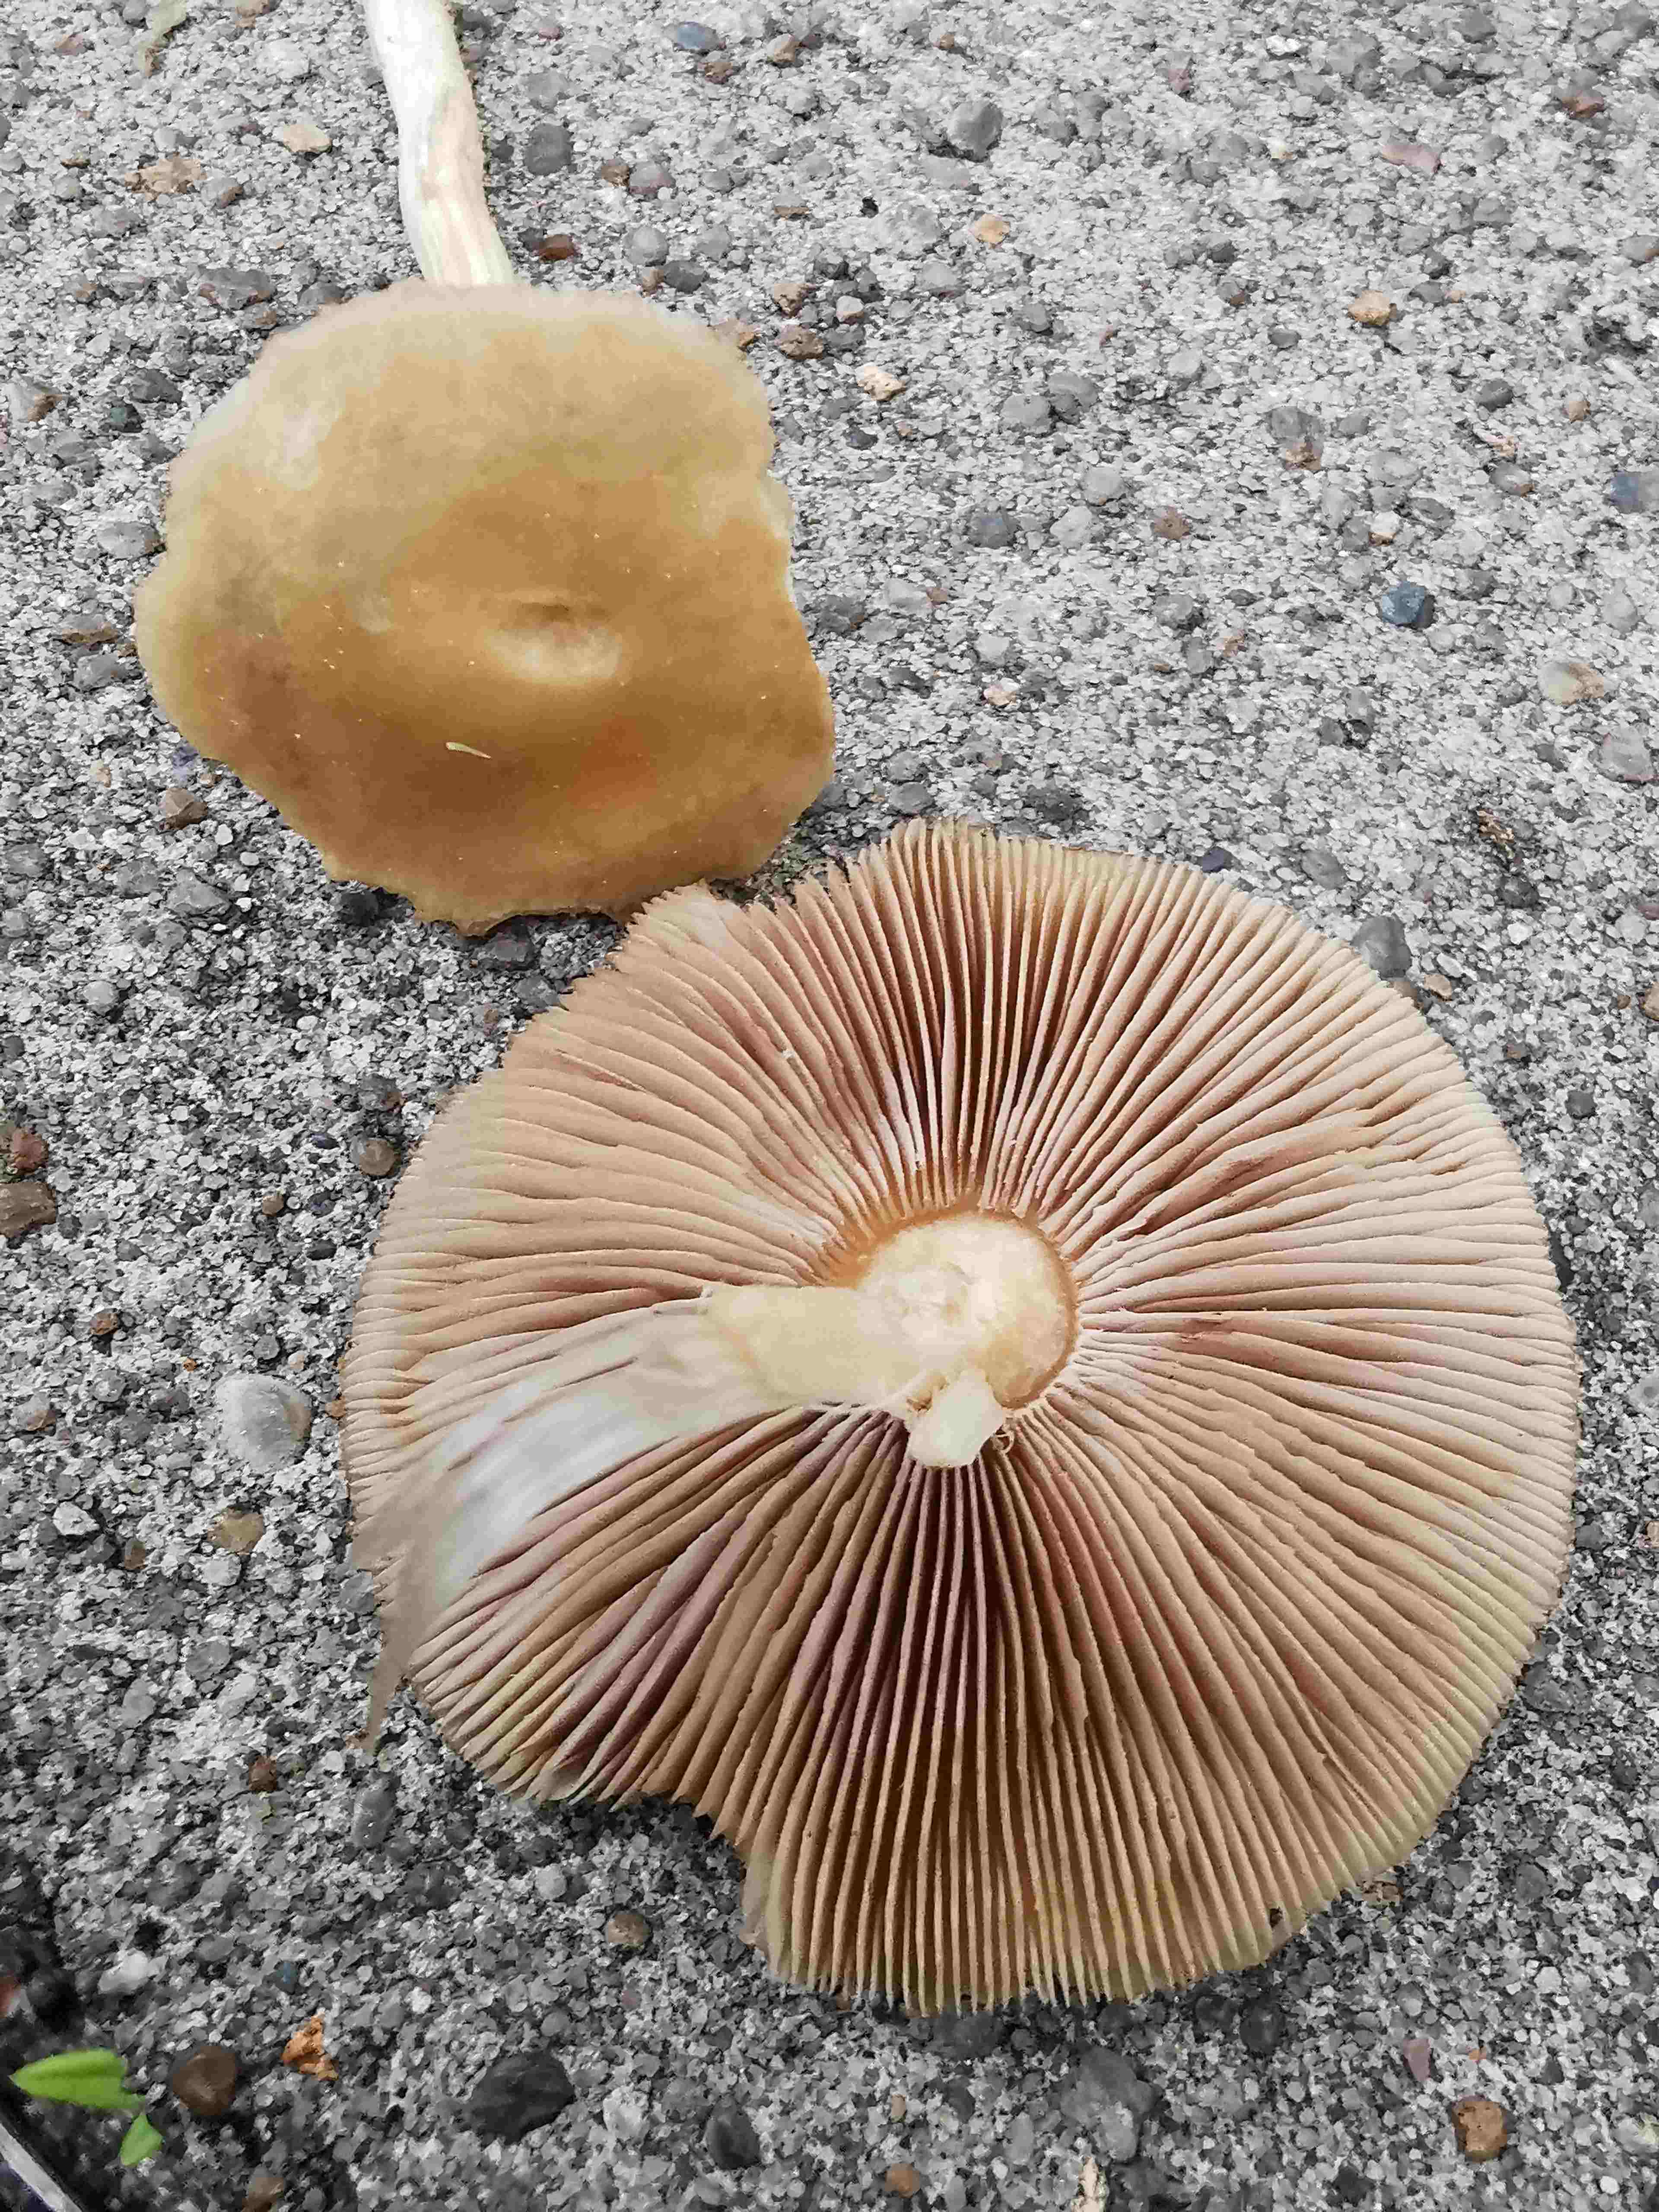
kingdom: Fungi
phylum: Basidiomycota
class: Agaricomycetes
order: Agaricales
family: Strophariaceae
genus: Agrocybe
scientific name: Agrocybe praecox
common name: tidlig agerhat
